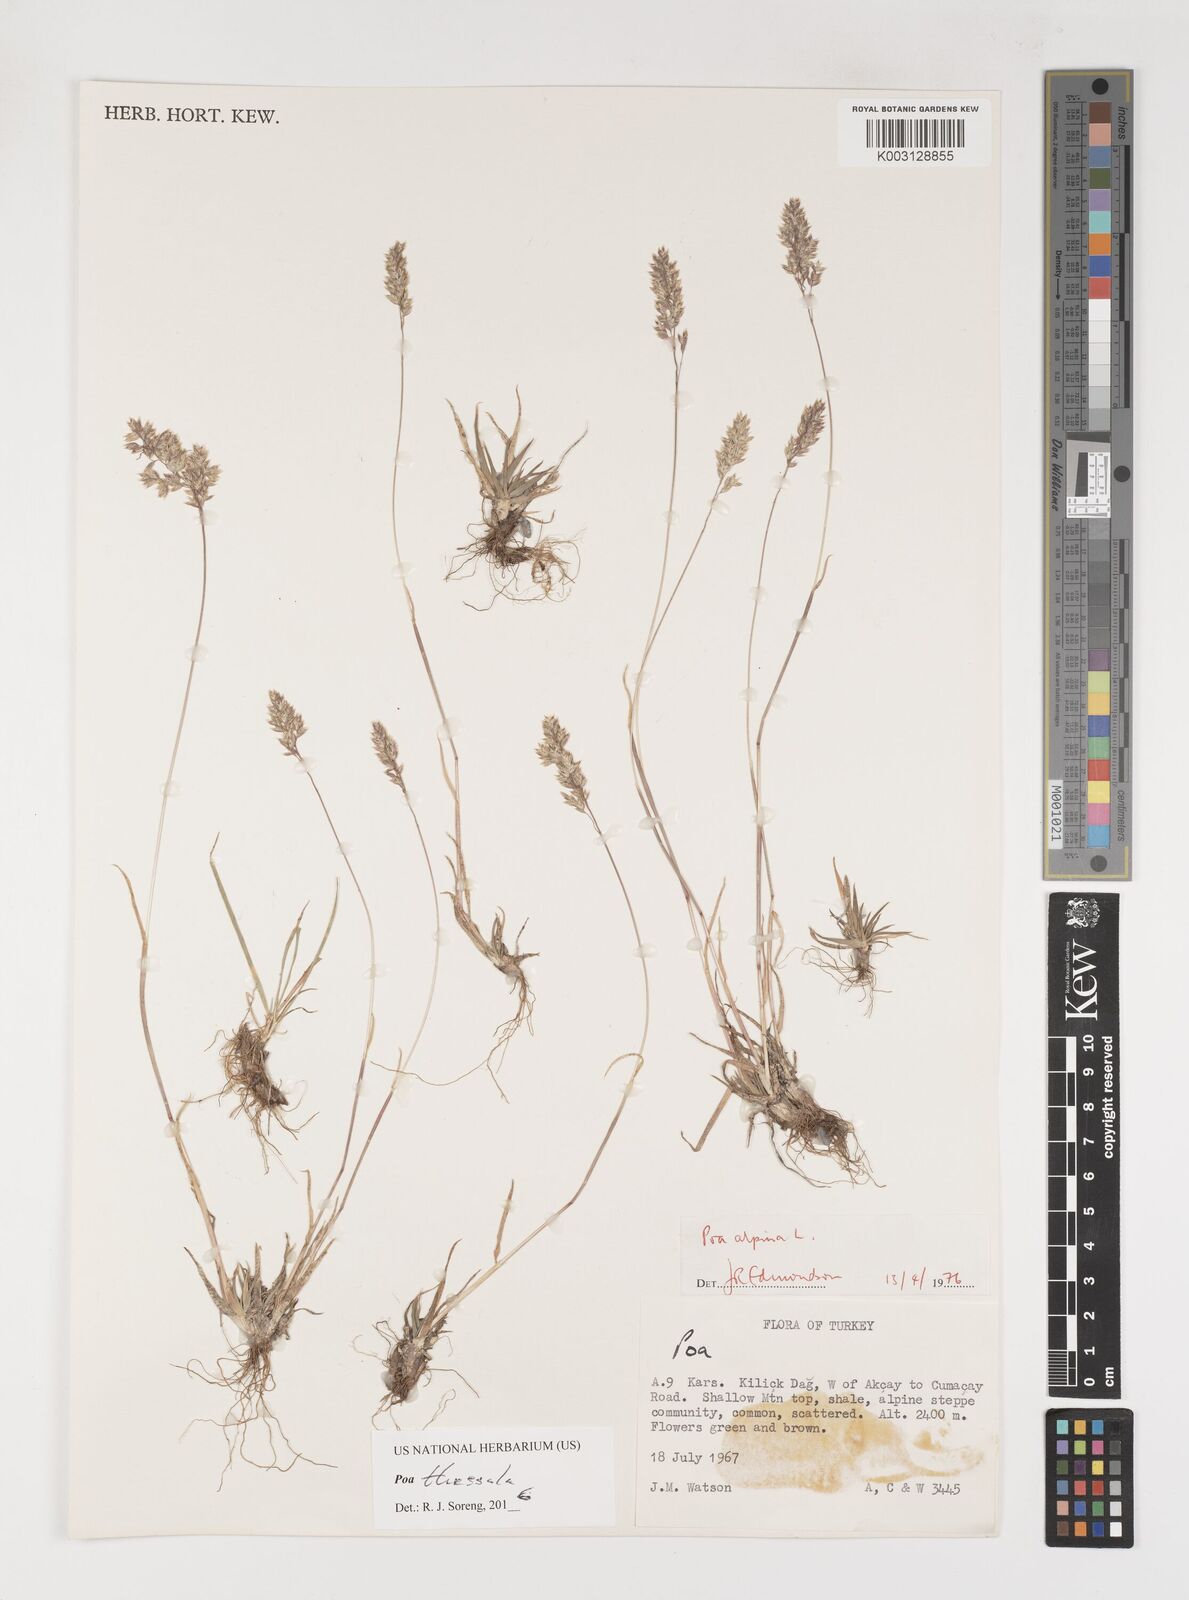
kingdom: Plantae
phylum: Tracheophyta
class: Liliopsida
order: Poales
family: Poaceae
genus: Poa
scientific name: Poa thessala
